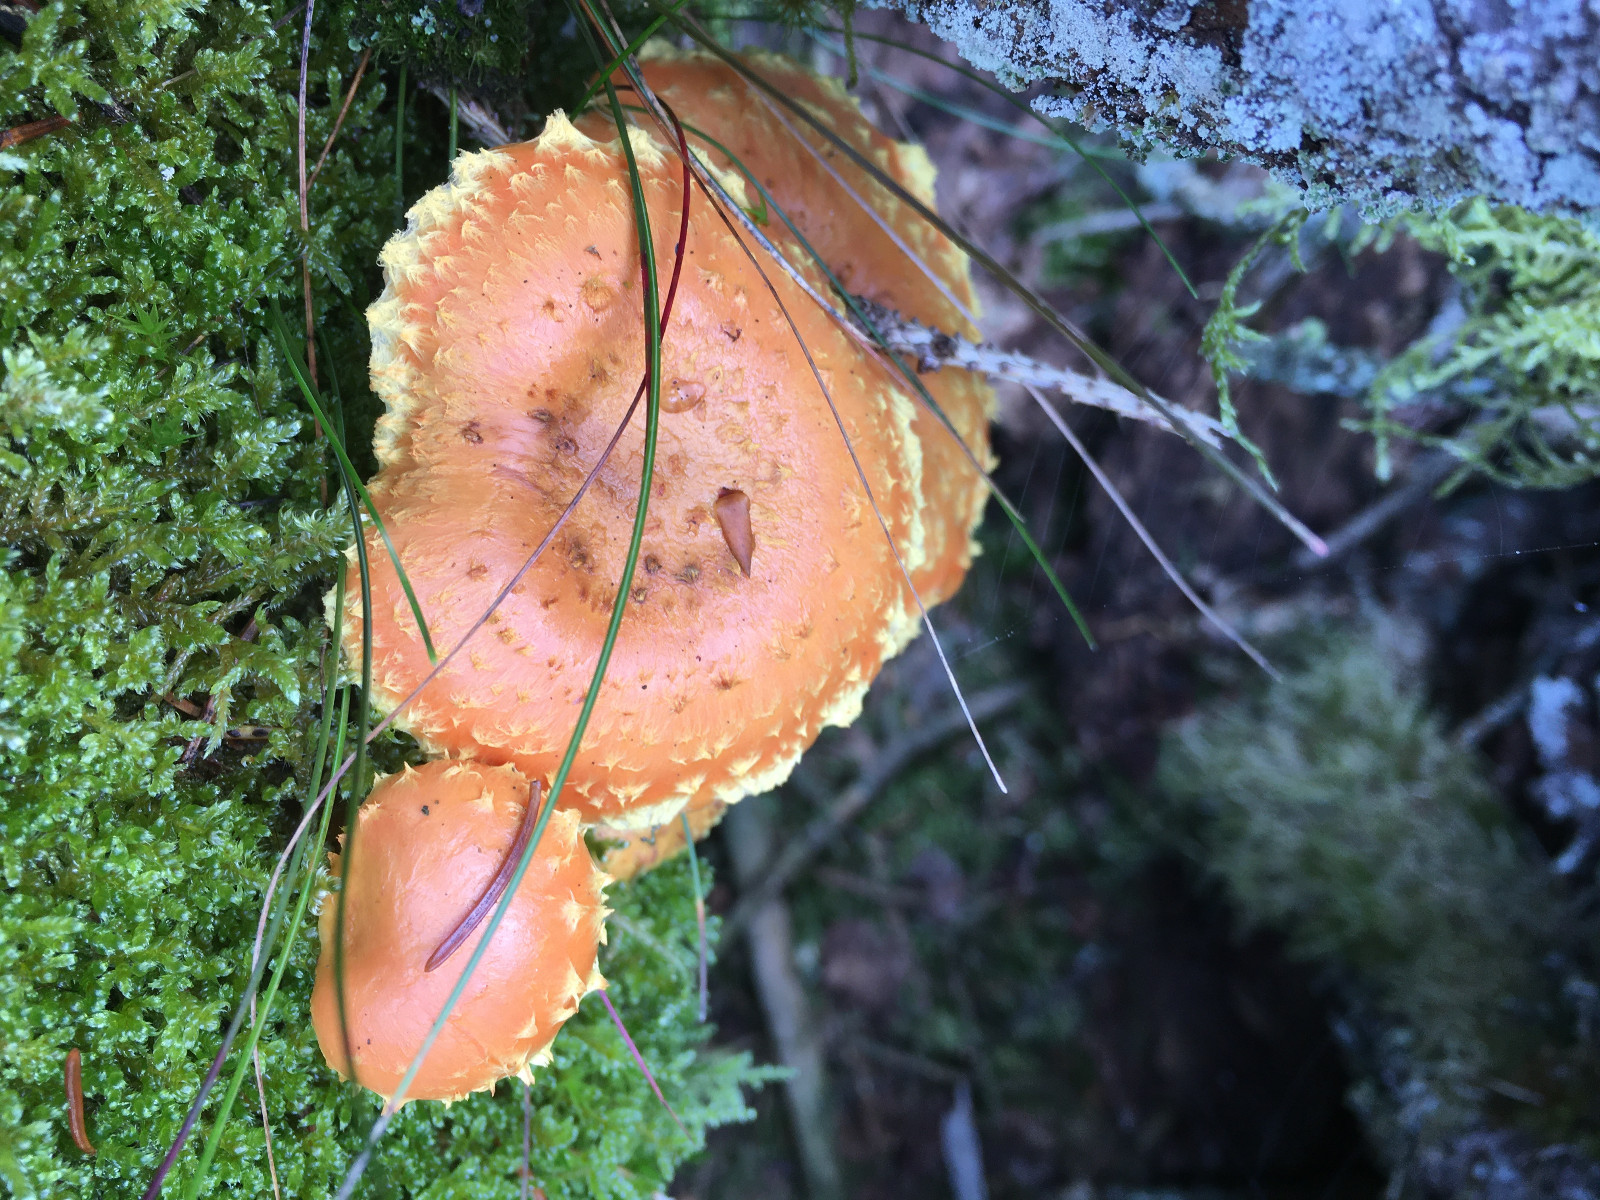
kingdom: Fungi
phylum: Basidiomycota
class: Agaricomycetes
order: Agaricales
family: Strophariaceae
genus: Pholiota
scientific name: Pholiota flammans
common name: flamme-skælhat
